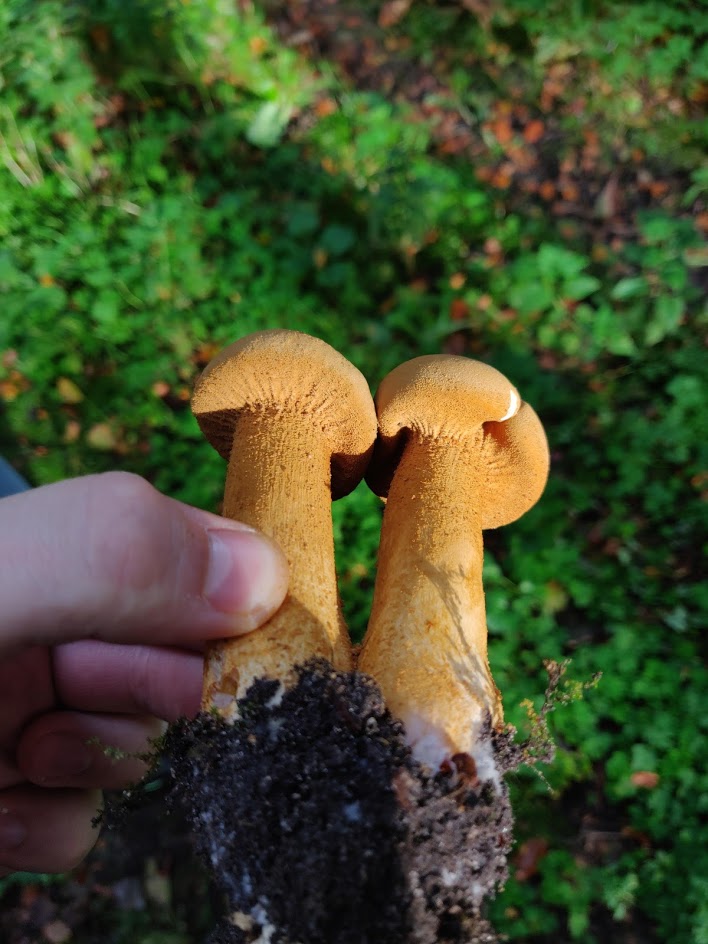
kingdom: Fungi
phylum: Basidiomycota
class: Agaricomycetes
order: Agaricales
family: Tricholomataceae
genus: Phaeolepiota
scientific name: Phaeolepiota aurea
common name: gyldenhat
